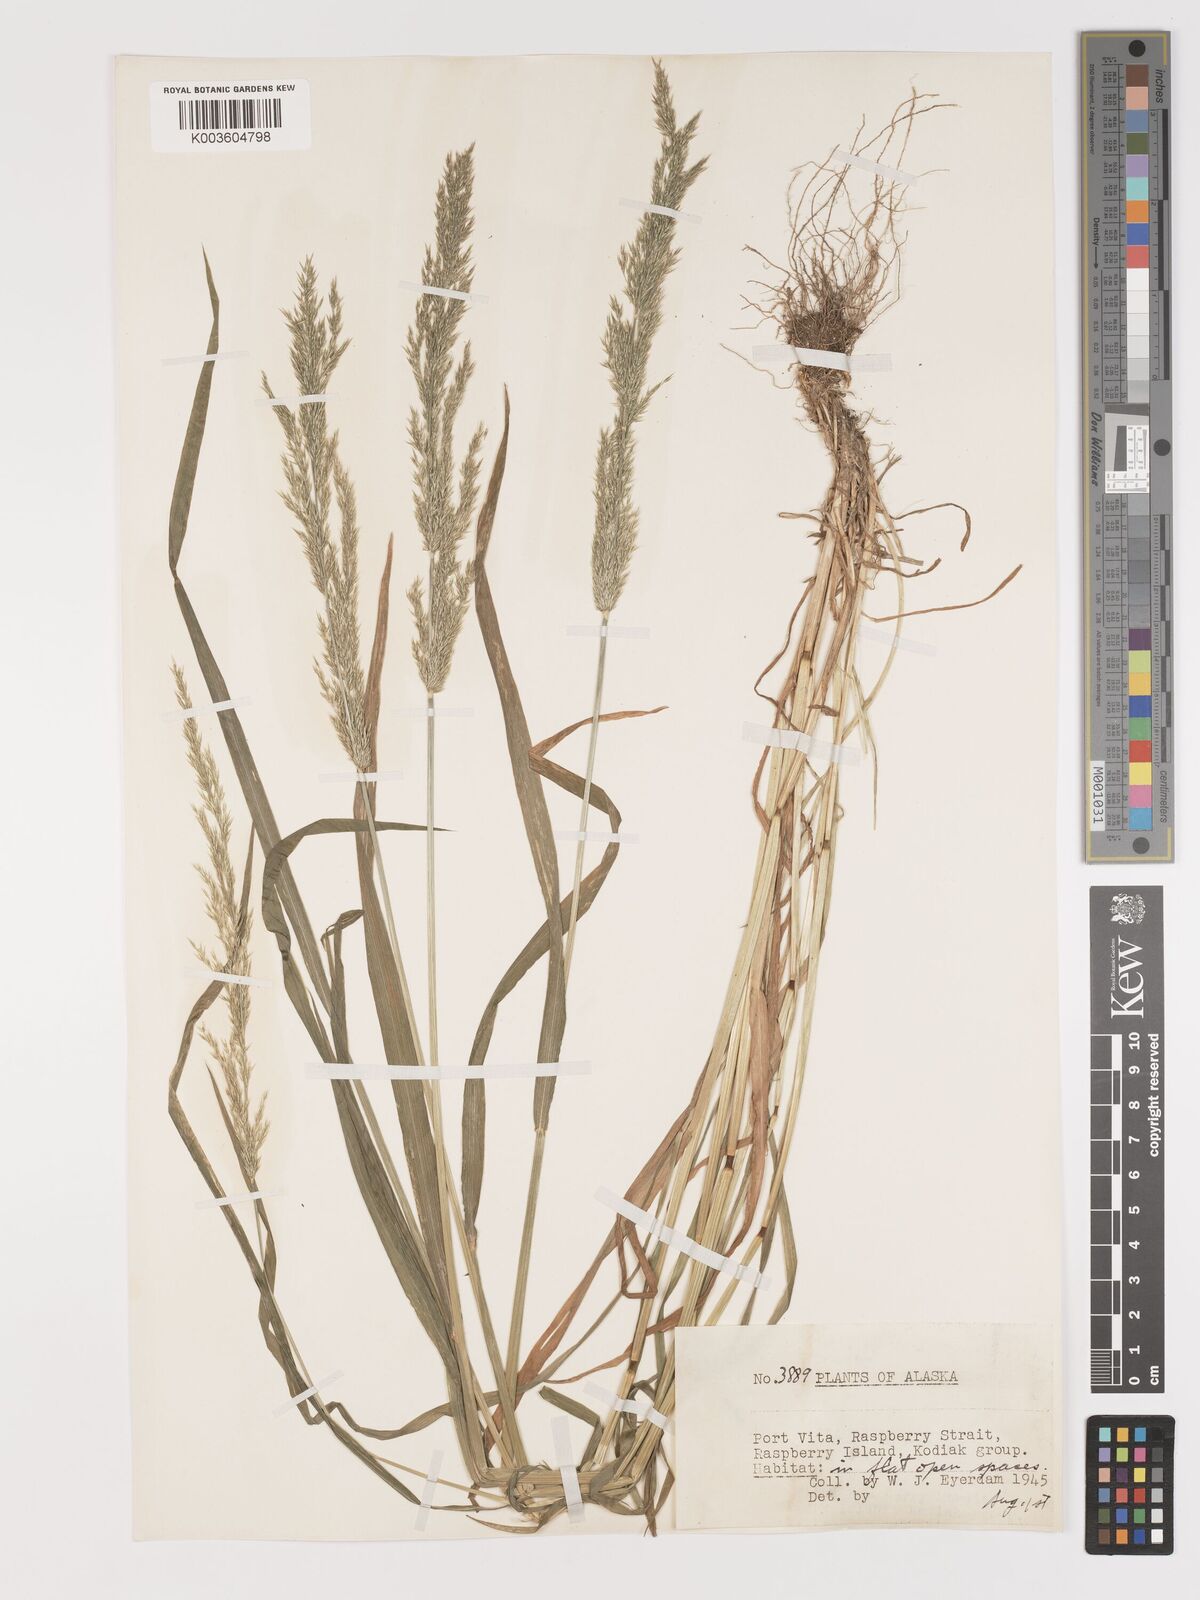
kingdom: Plantae
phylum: Tracheophyta
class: Liliopsida
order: Poales
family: Poaceae
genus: Agrostis
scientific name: Agrostis
